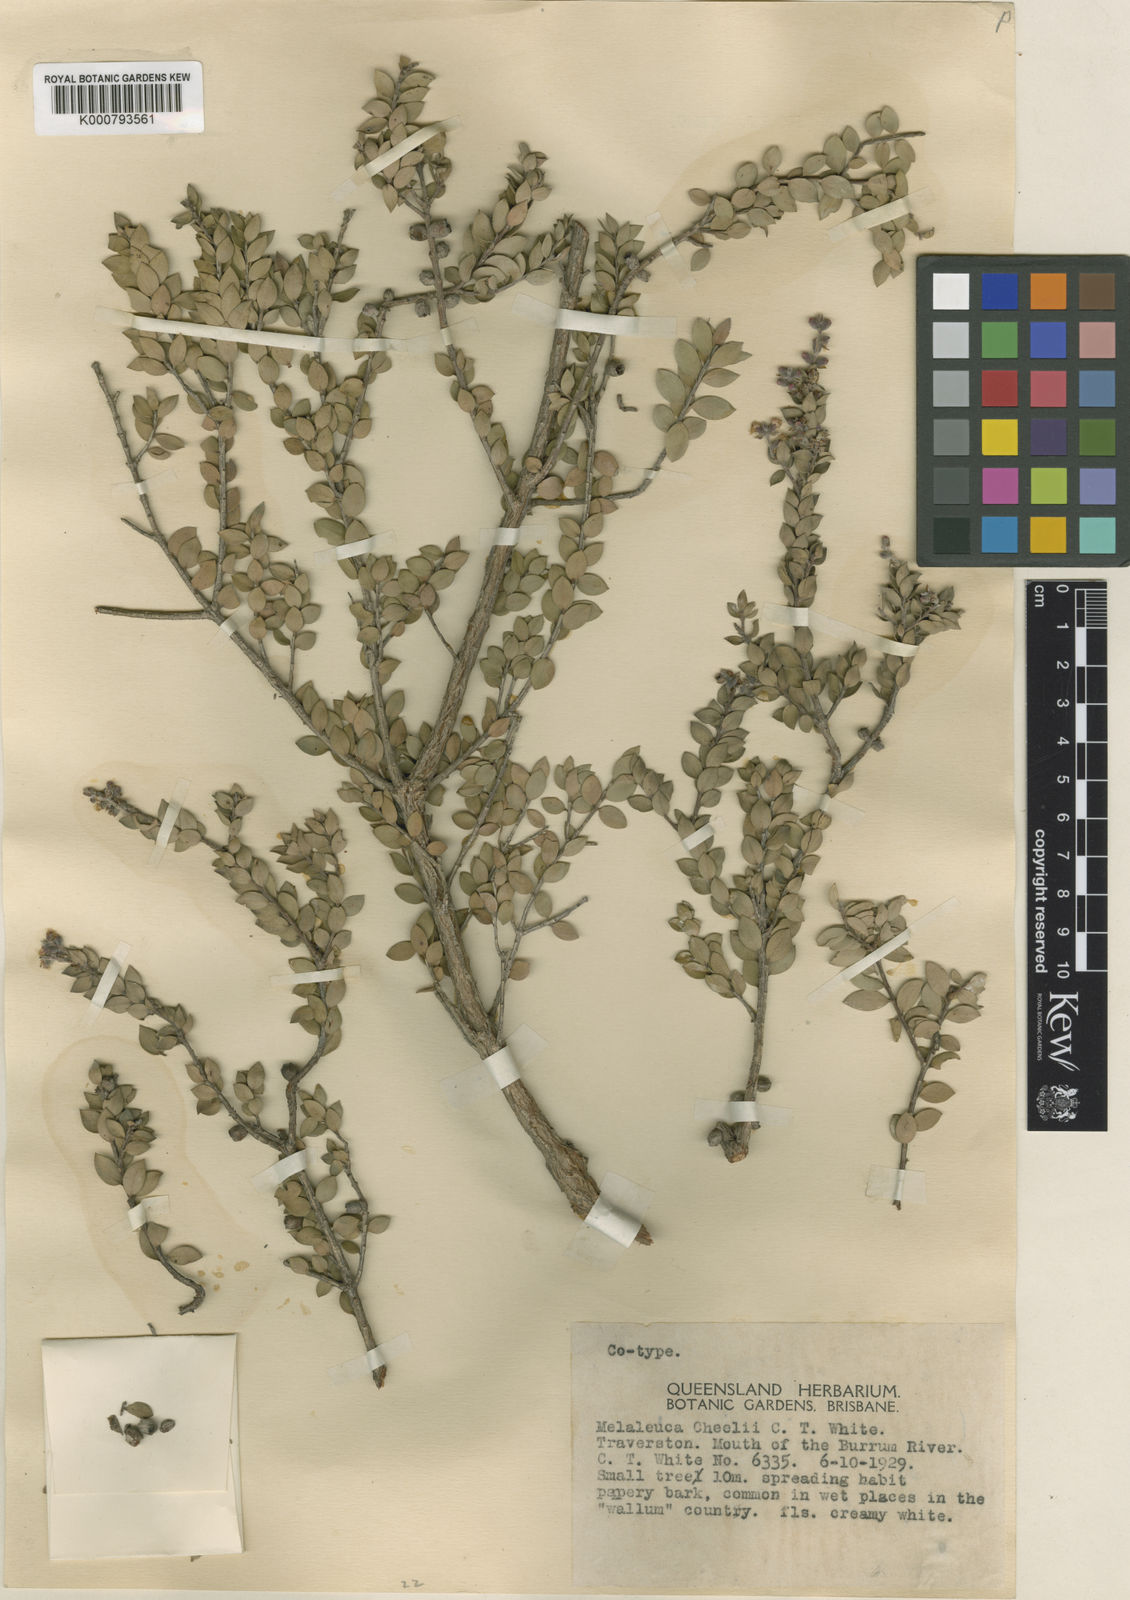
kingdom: Plantae
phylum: Tracheophyta
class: Magnoliopsida
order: Myrtales
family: Myrtaceae
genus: Melaleuca
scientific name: Melaleuca cheelii
